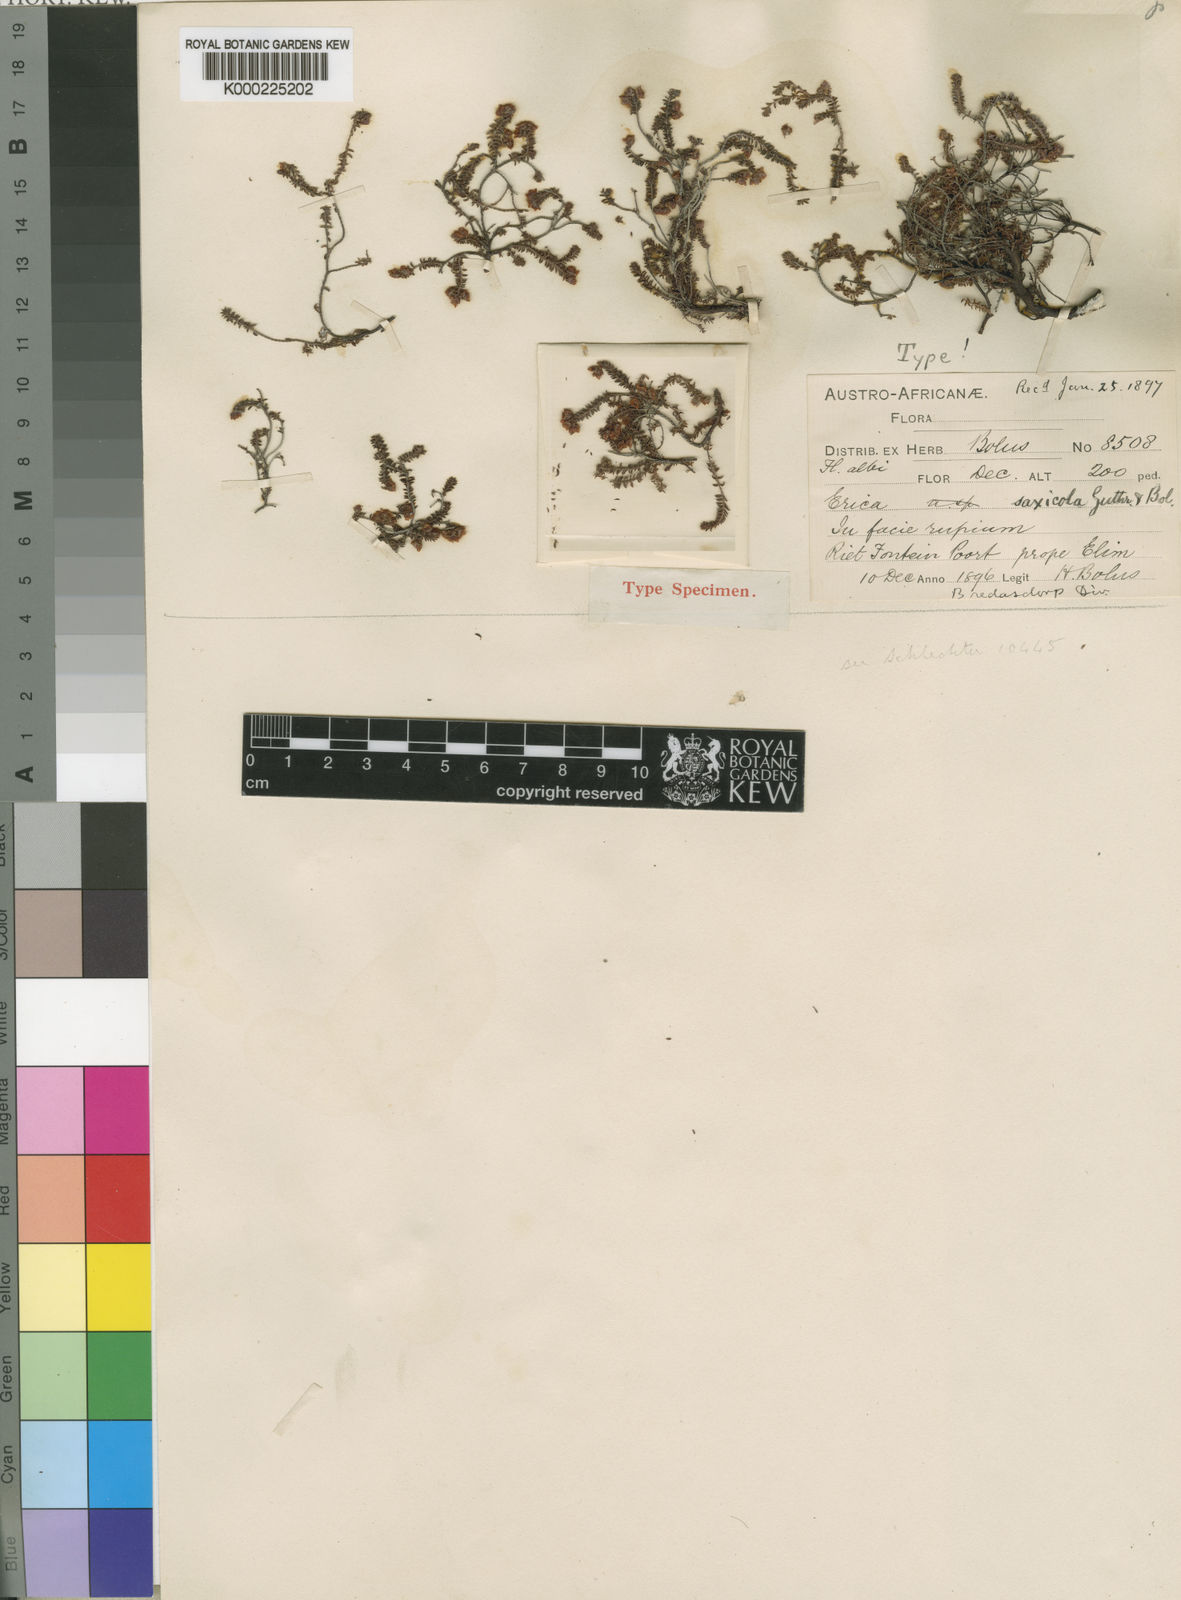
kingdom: Plantae
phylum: Tracheophyta
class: Magnoliopsida
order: Ericales
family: Ericaceae
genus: Erica
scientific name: Erica saxicola
